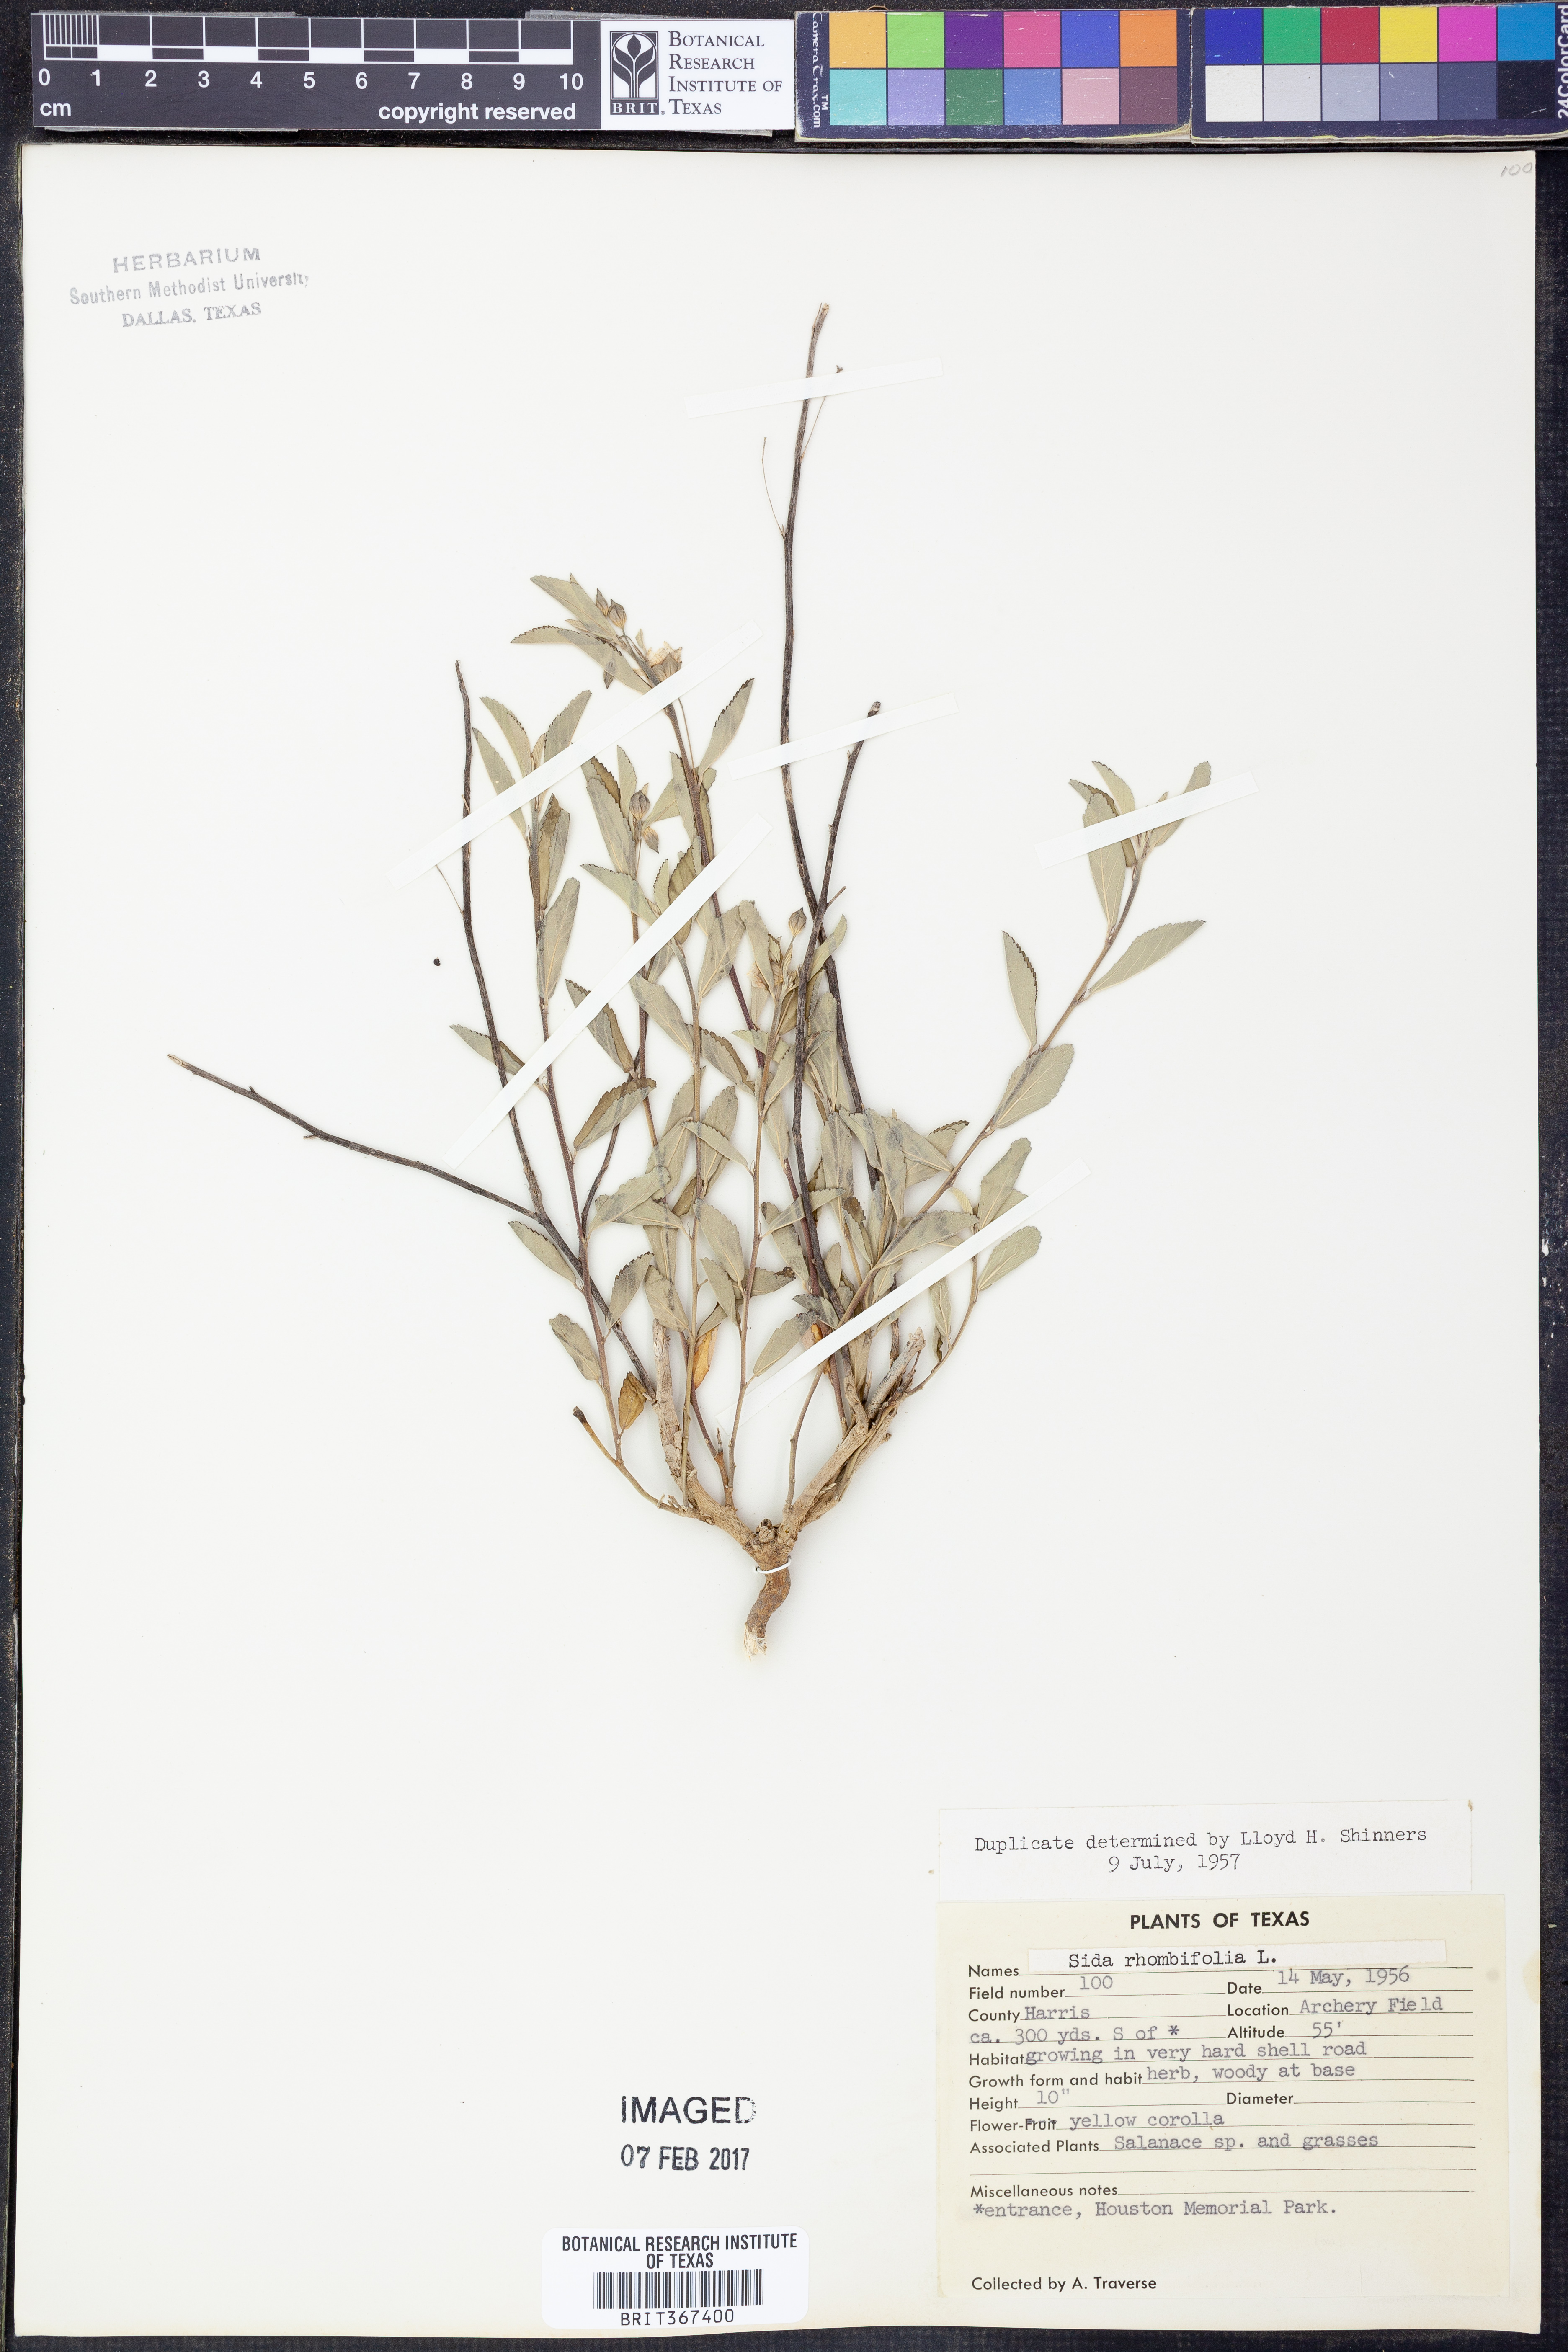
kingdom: Plantae
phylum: Tracheophyta
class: Magnoliopsida
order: Malvales
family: Malvaceae
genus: Sida
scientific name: Sida rhombifolia
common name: Queensland-hemp
